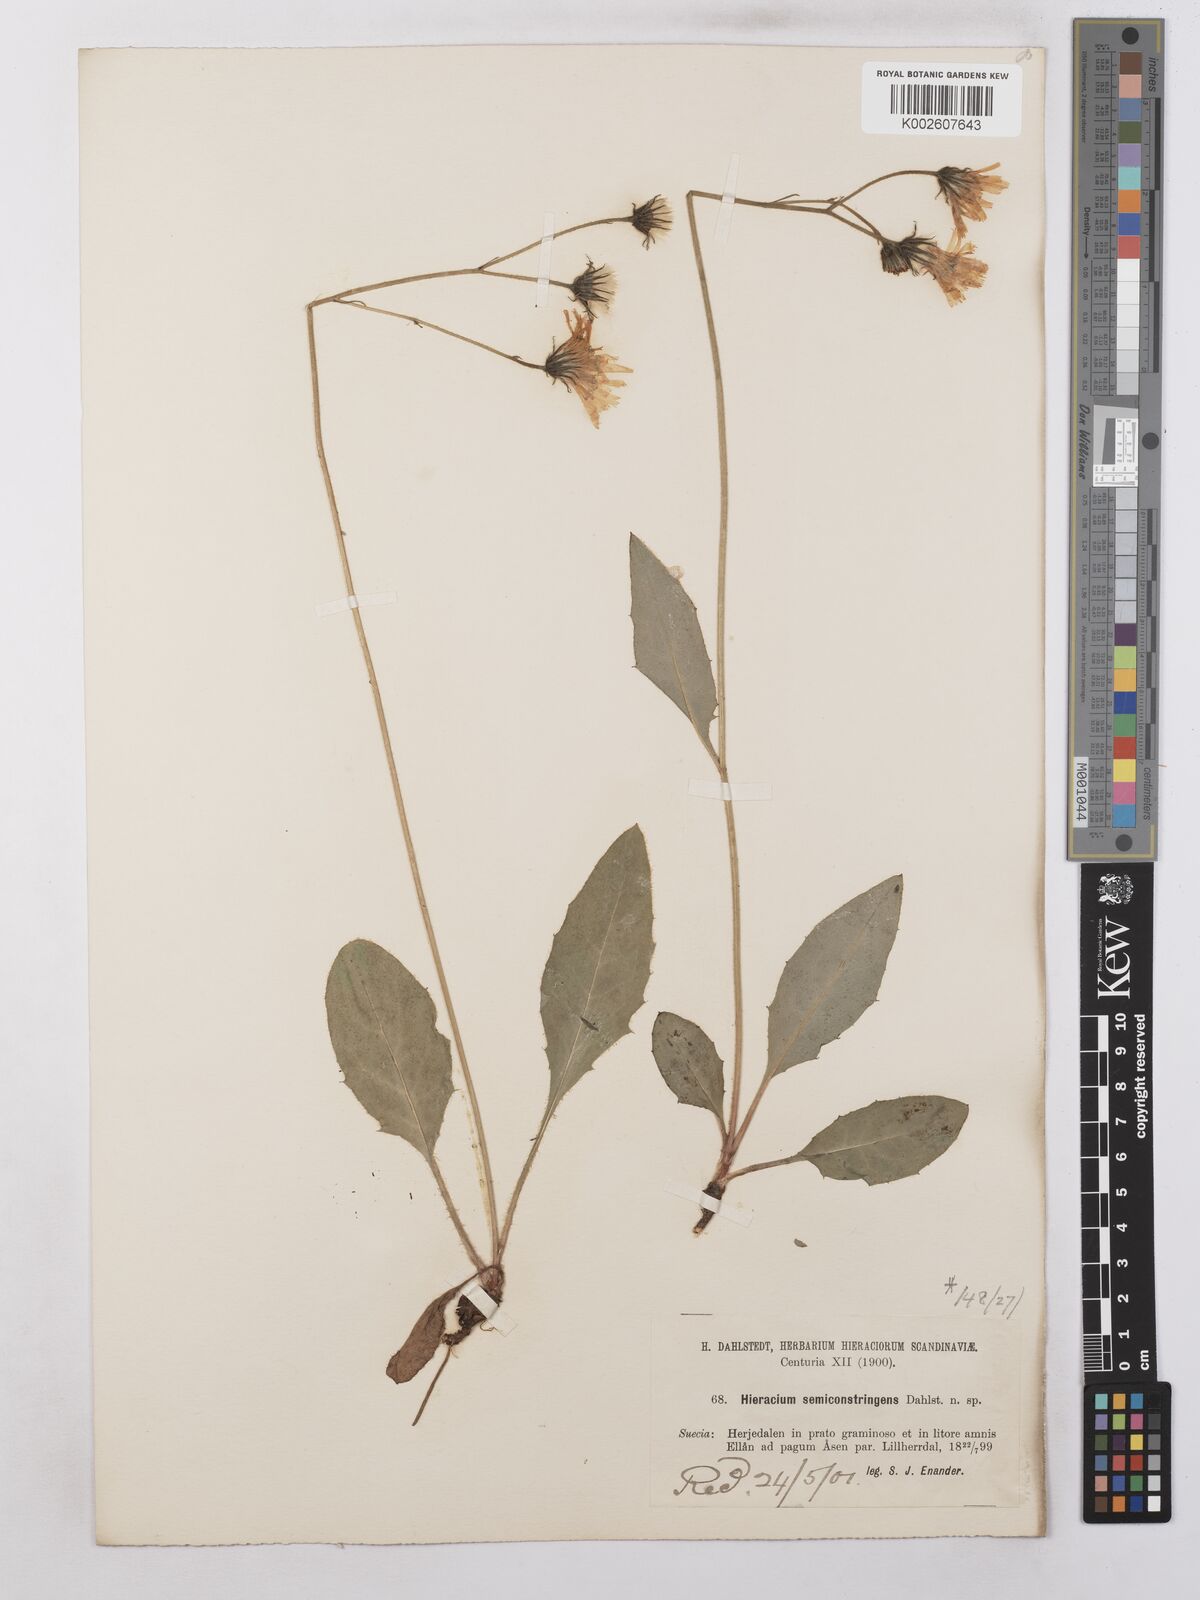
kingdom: Plantae
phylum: Tracheophyta
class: Magnoliopsida
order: Asterales
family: Asteraceae
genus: Hieracium
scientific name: Hieracium subramosum
